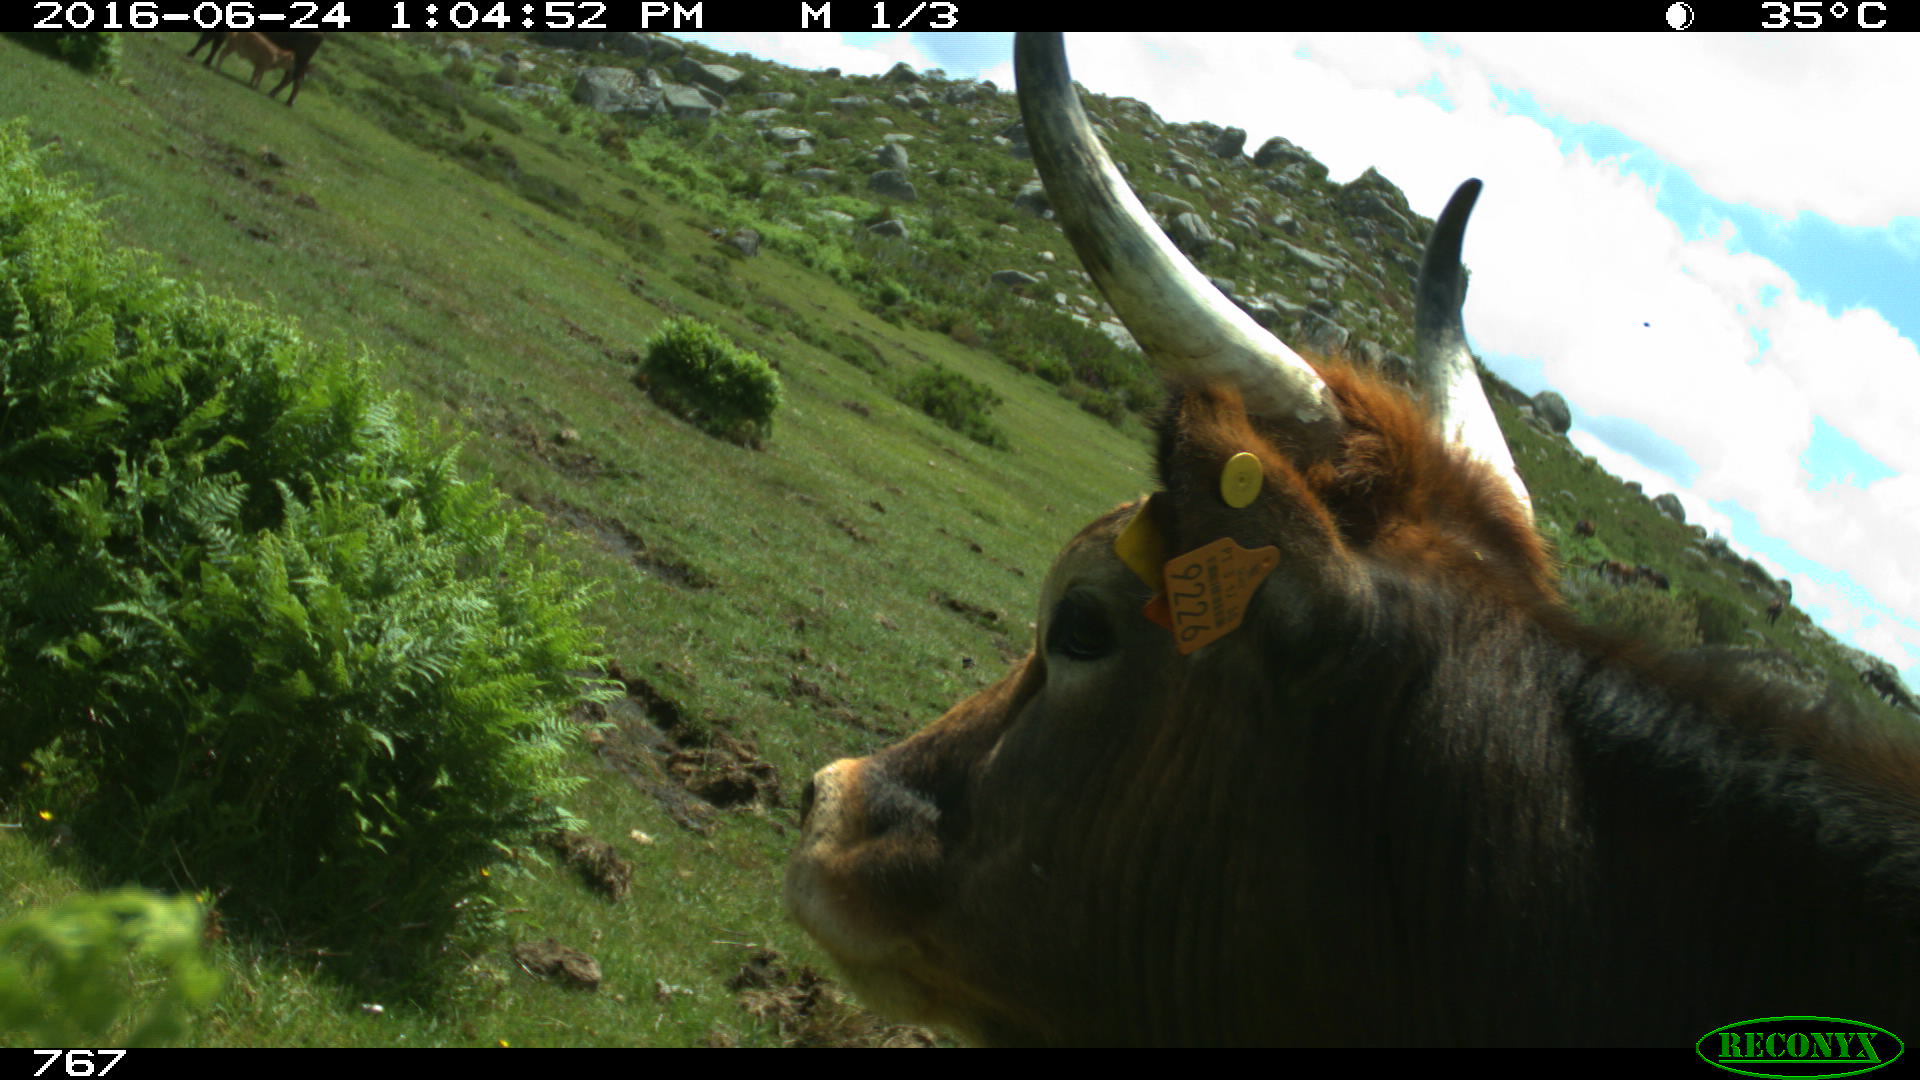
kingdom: Animalia
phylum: Chordata
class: Mammalia
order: Artiodactyla
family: Bovidae
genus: Bos
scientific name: Bos taurus
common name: Domesticated cattle
